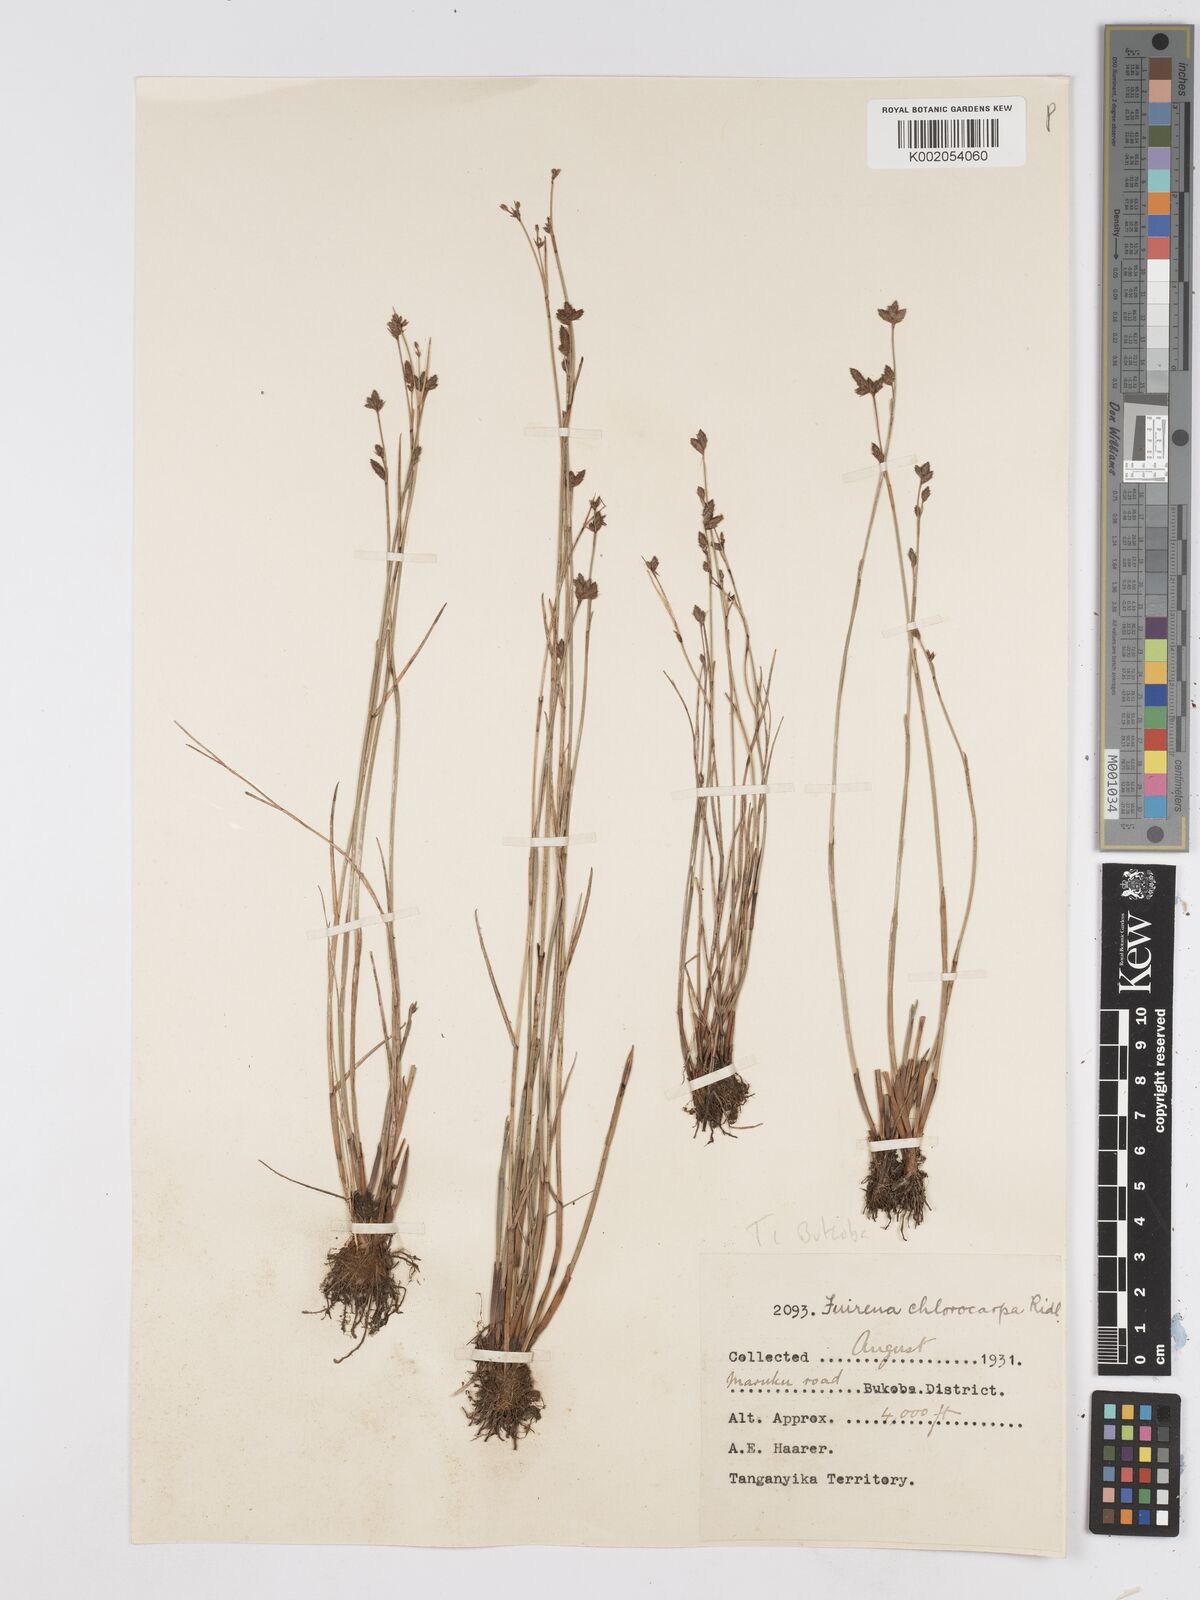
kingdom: Plantae
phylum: Tracheophyta
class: Liliopsida
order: Poales
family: Cyperaceae
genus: Fuirena
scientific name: Fuirena stricta
